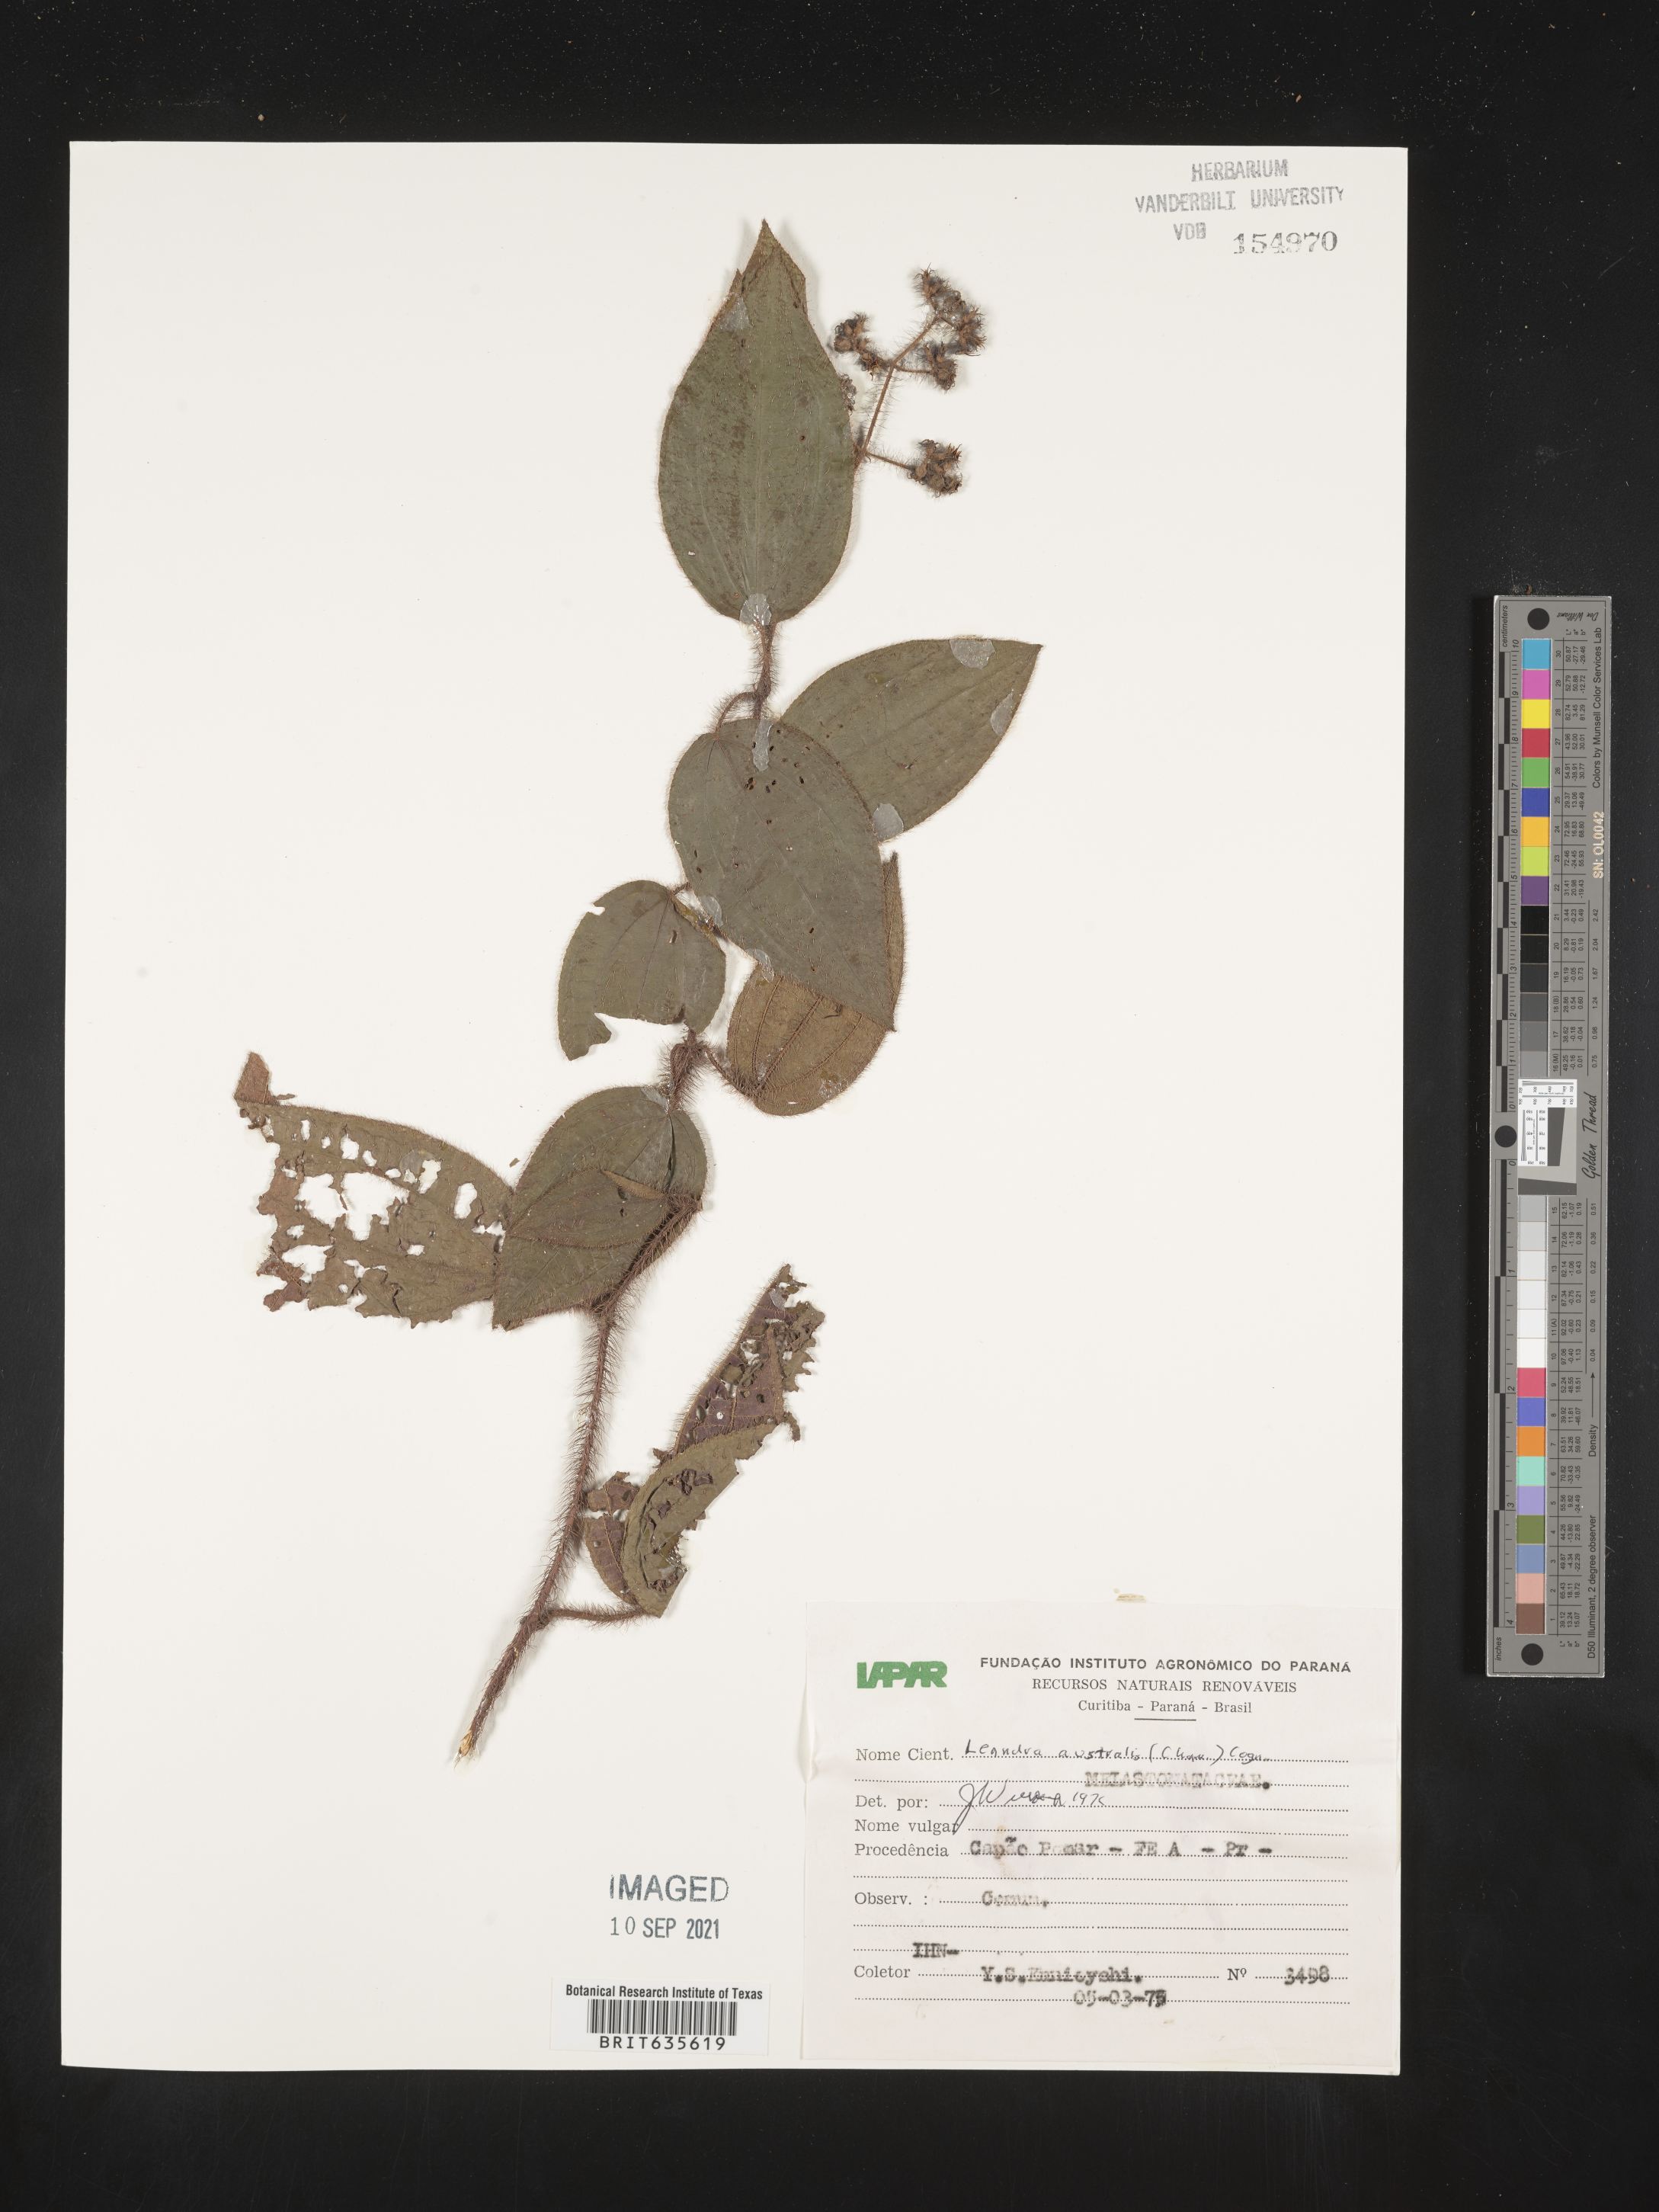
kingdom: Plantae
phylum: Tracheophyta
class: Magnoliopsida
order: Myrtales
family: Melastomataceae
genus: Miconia
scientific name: Miconia
